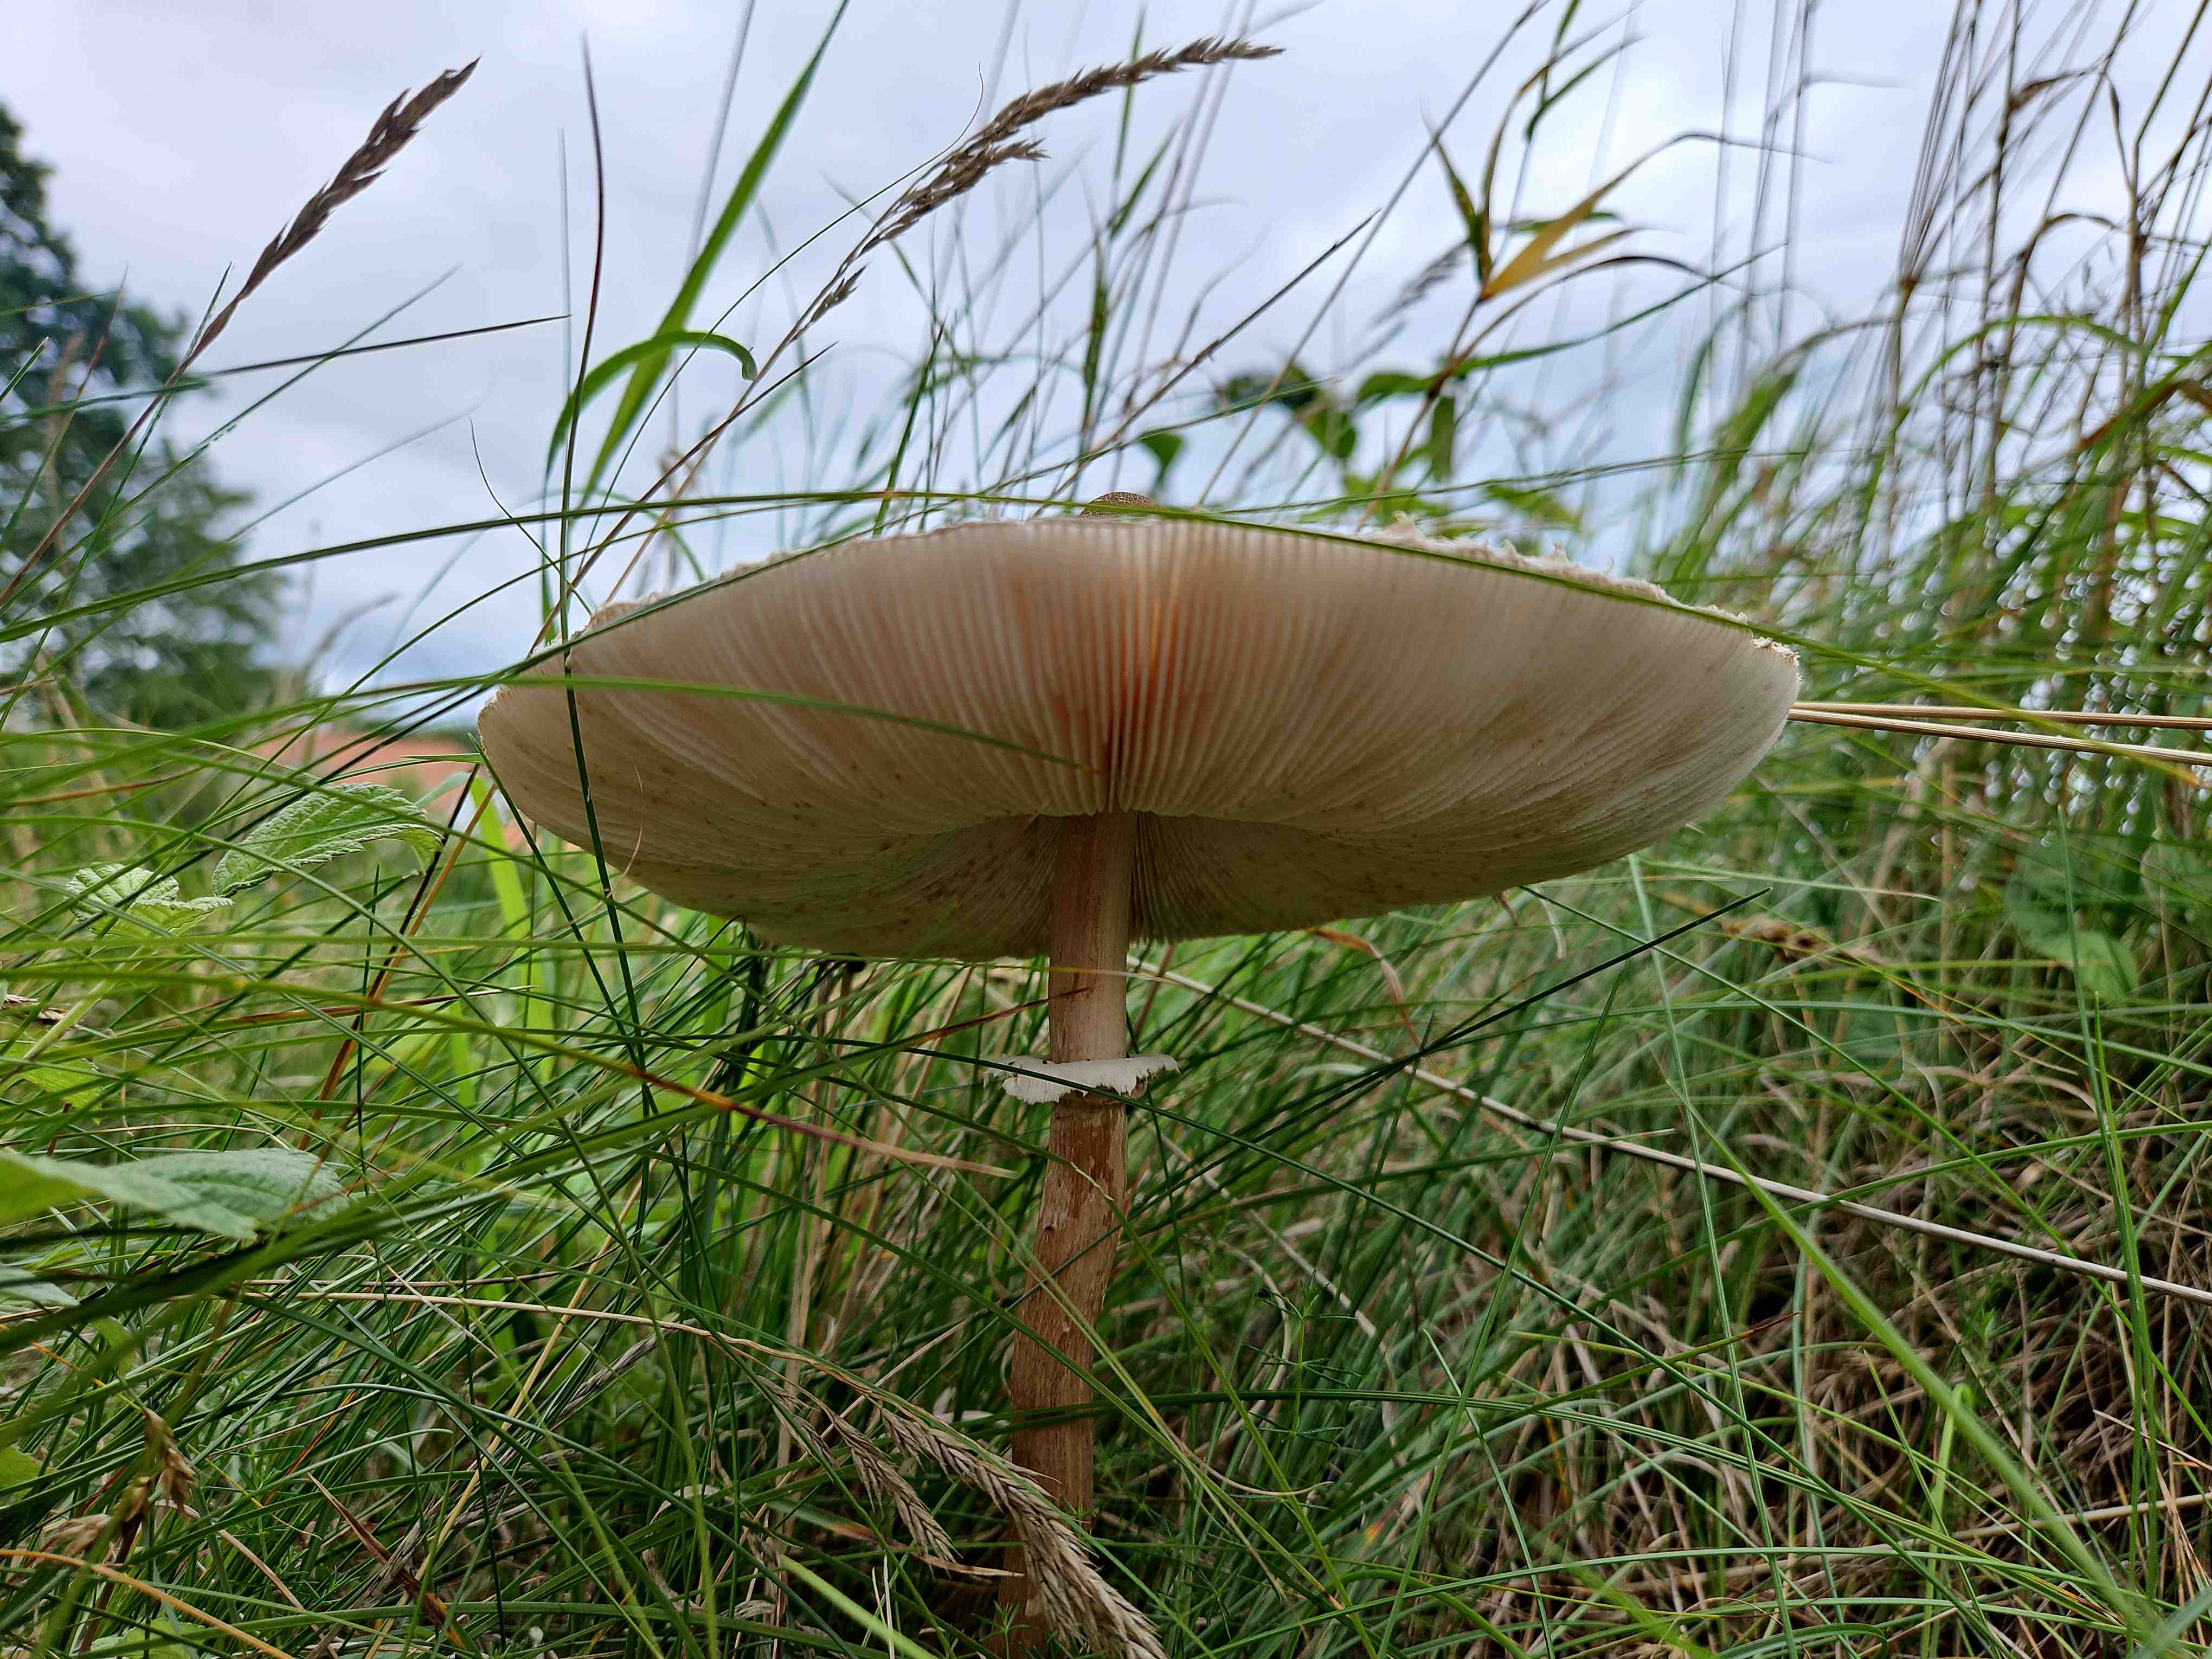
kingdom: Fungi
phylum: Basidiomycota
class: Agaricomycetes
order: Agaricales
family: Agaricaceae
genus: Macrolepiota
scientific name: Macrolepiota procera
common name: stor kæmpeparasolhat
